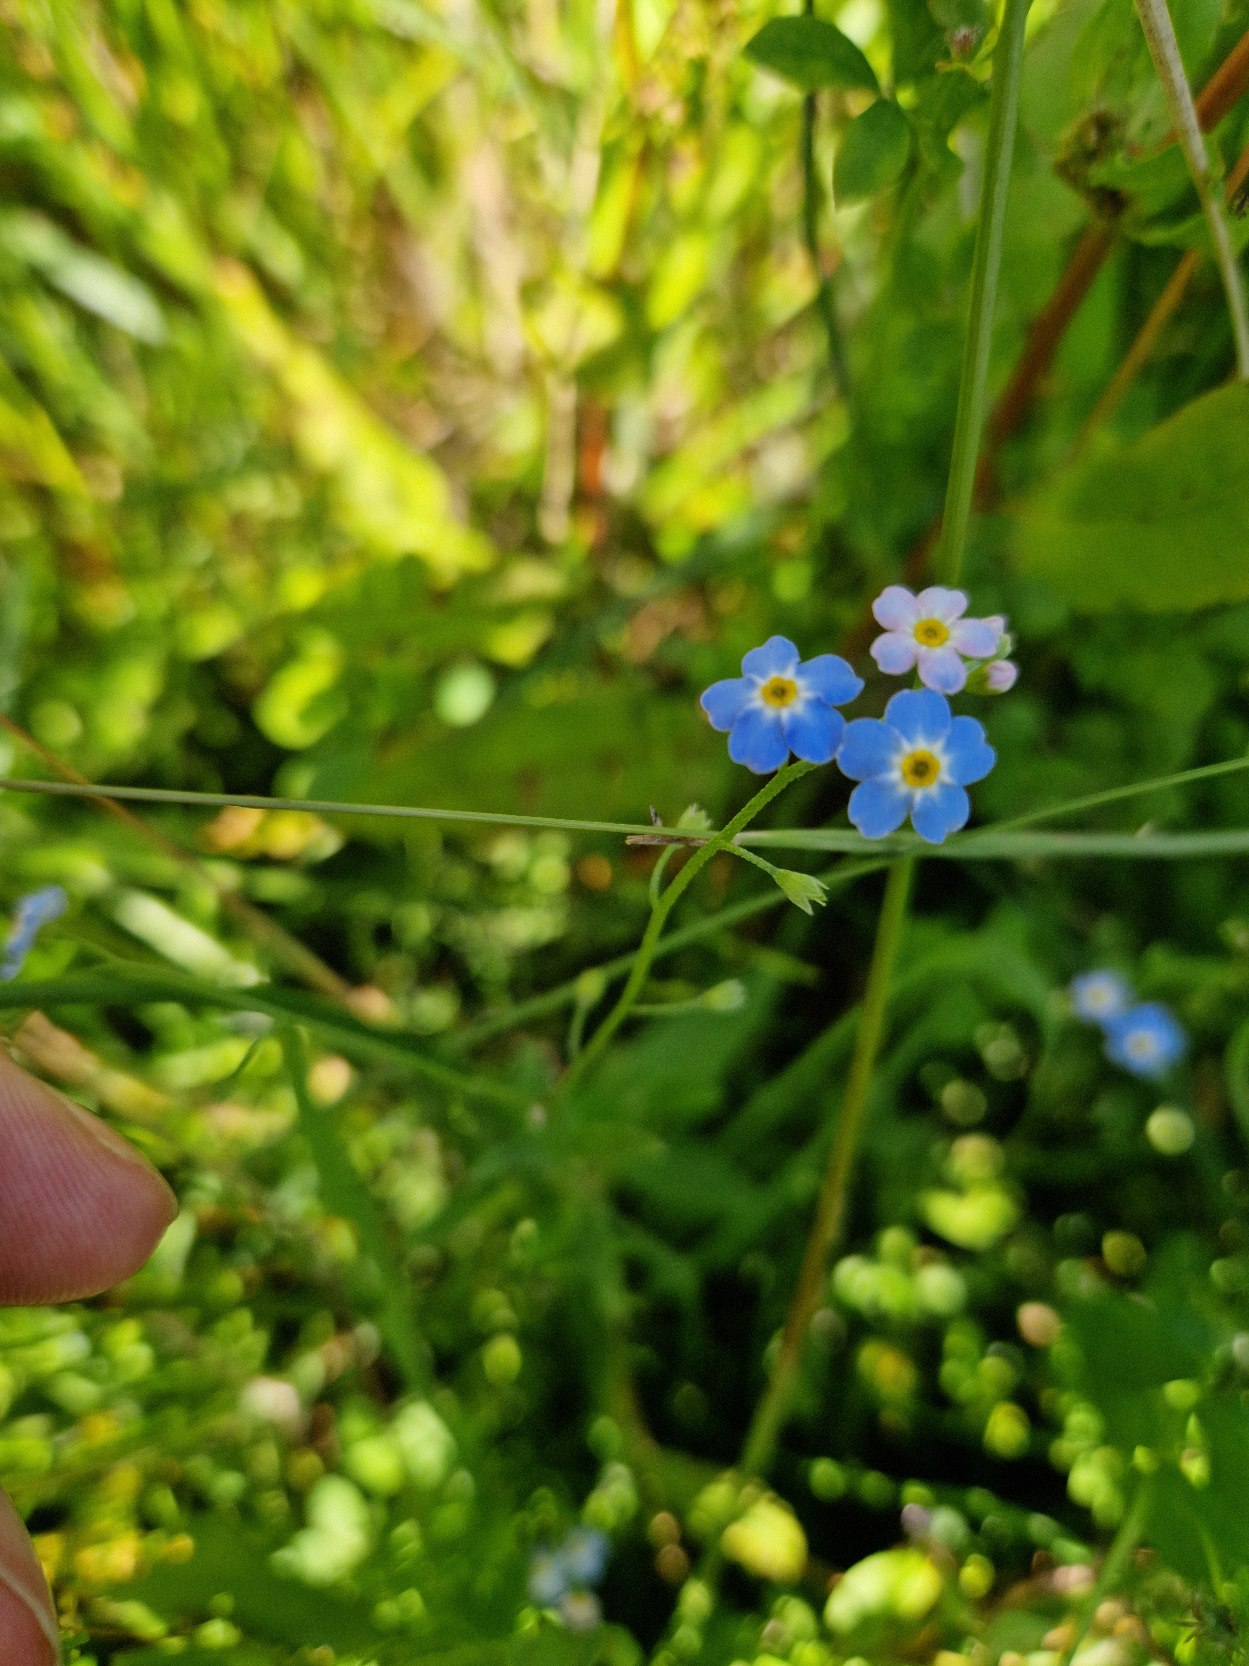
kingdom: Plantae
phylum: Tracheophyta
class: Magnoliopsida
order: Boraginales
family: Boraginaceae
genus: Myosotis
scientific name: Myosotis scorpioides
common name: Eng-forglemmigej
